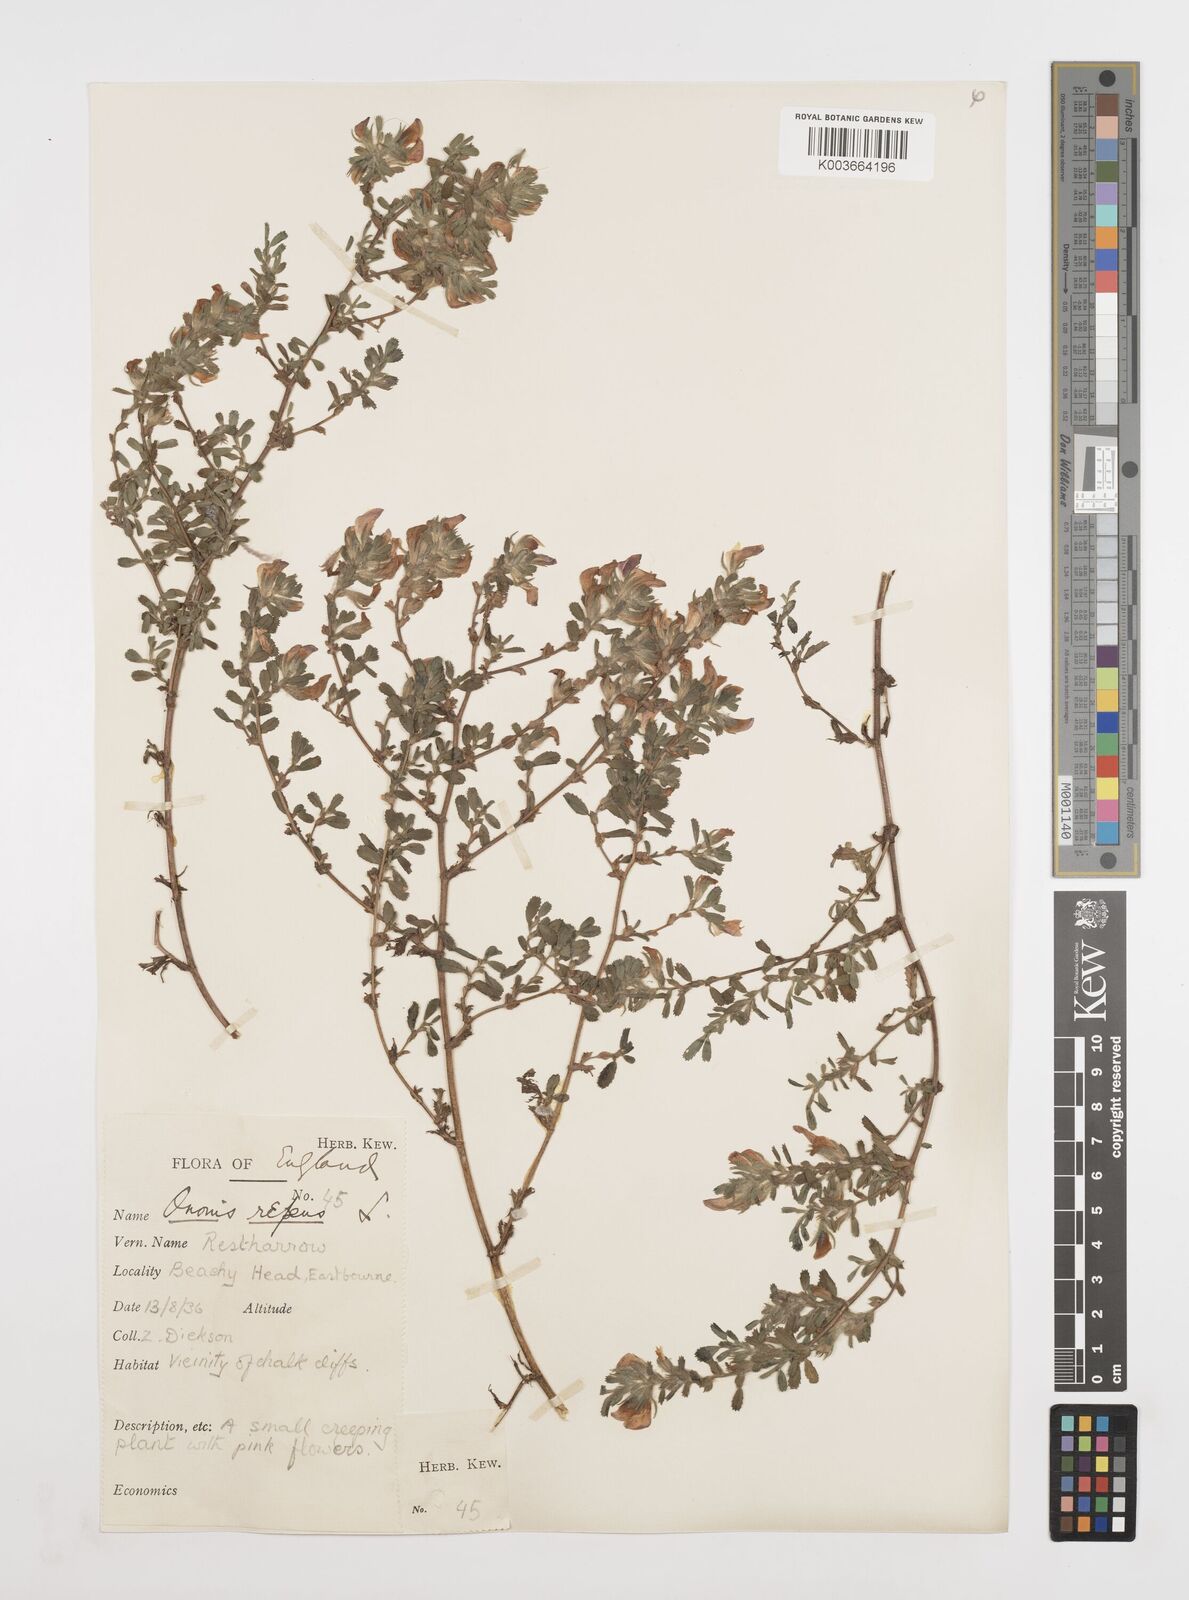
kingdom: Plantae
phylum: Tracheophyta
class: Magnoliopsida
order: Fabales
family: Fabaceae
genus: Ononis
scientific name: Ononis spinosa
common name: Spiny restharrow
